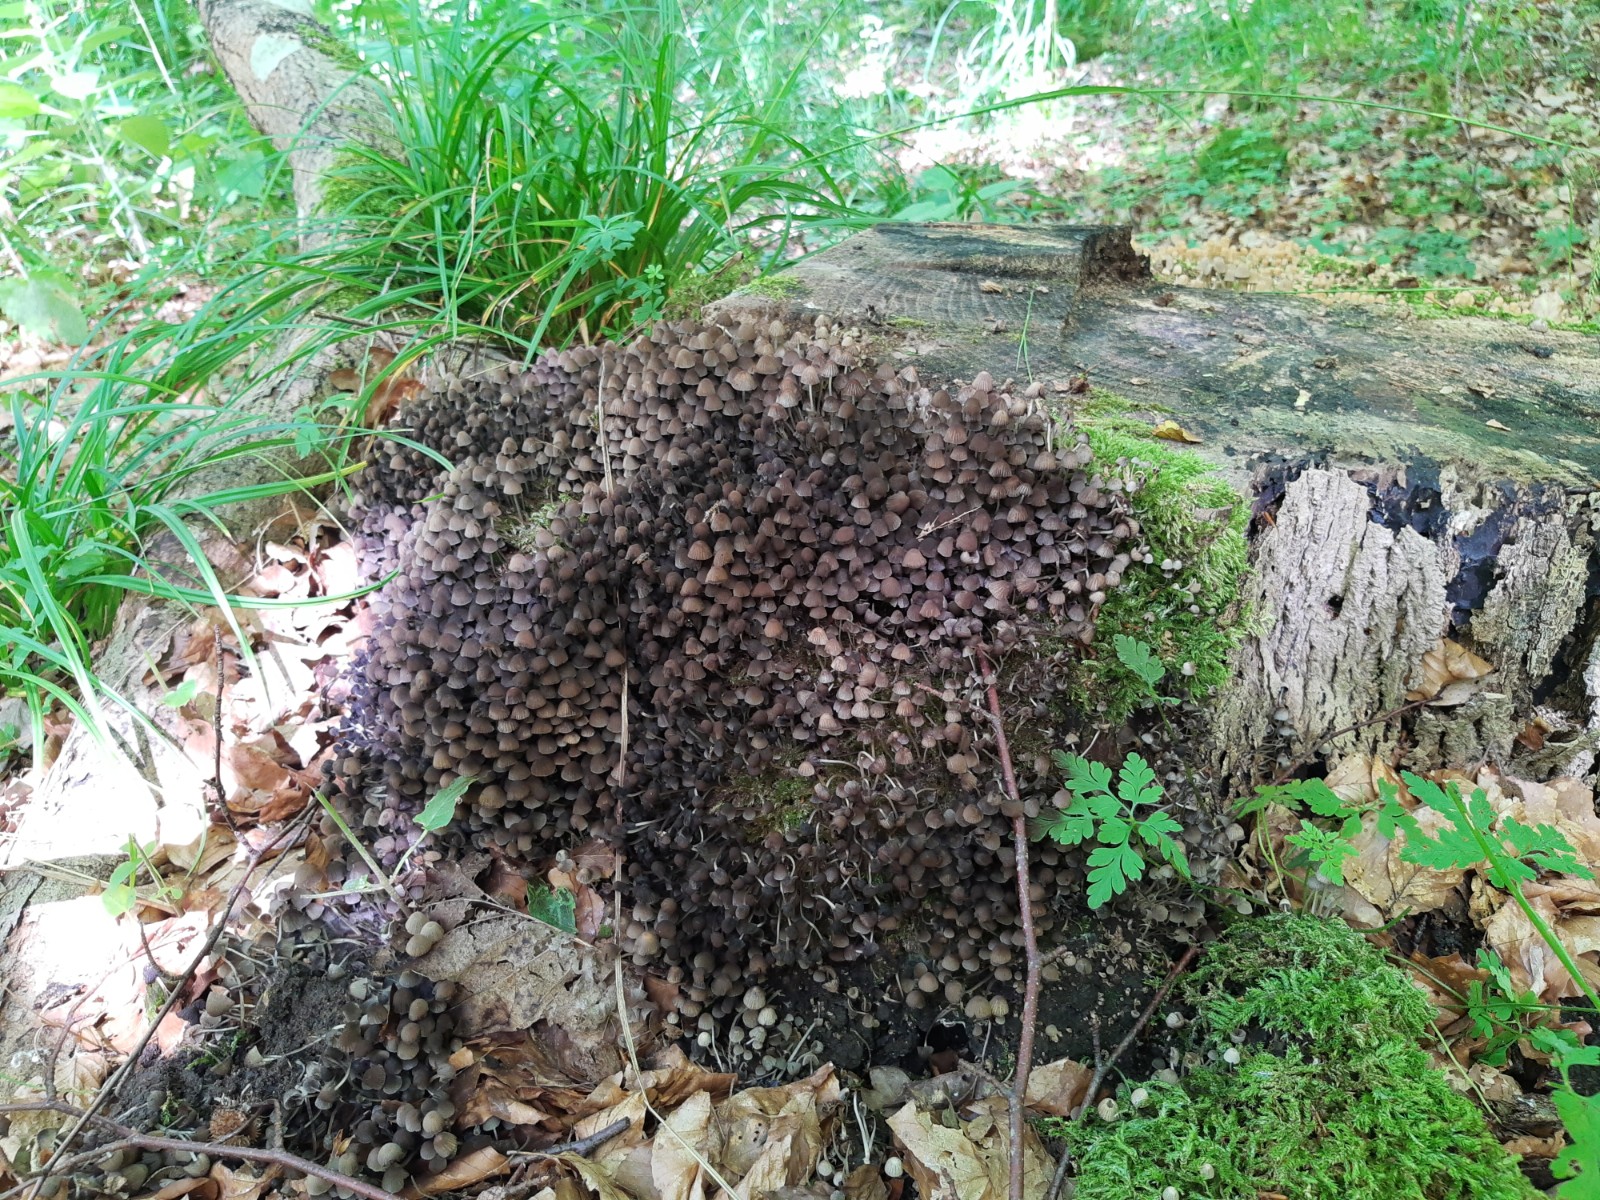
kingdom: Fungi
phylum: Basidiomycota
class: Agaricomycetes
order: Agaricales
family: Psathyrellaceae
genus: Coprinellus
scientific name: Coprinellus disseminatus
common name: bredsået blækhat
